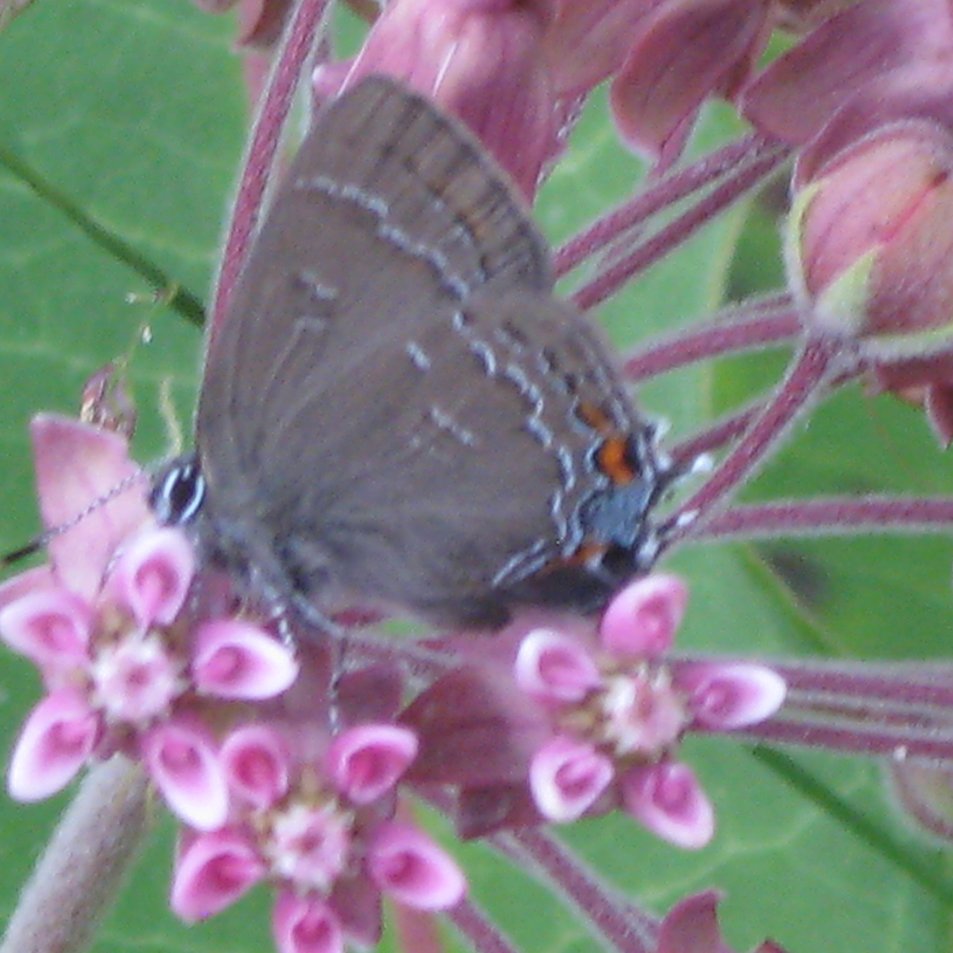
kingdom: Animalia
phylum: Arthropoda
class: Insecta
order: Lepidoptera
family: Lycaenidae
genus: Satyrium
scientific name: Satyrium calanus
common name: Banded Hairstreak
